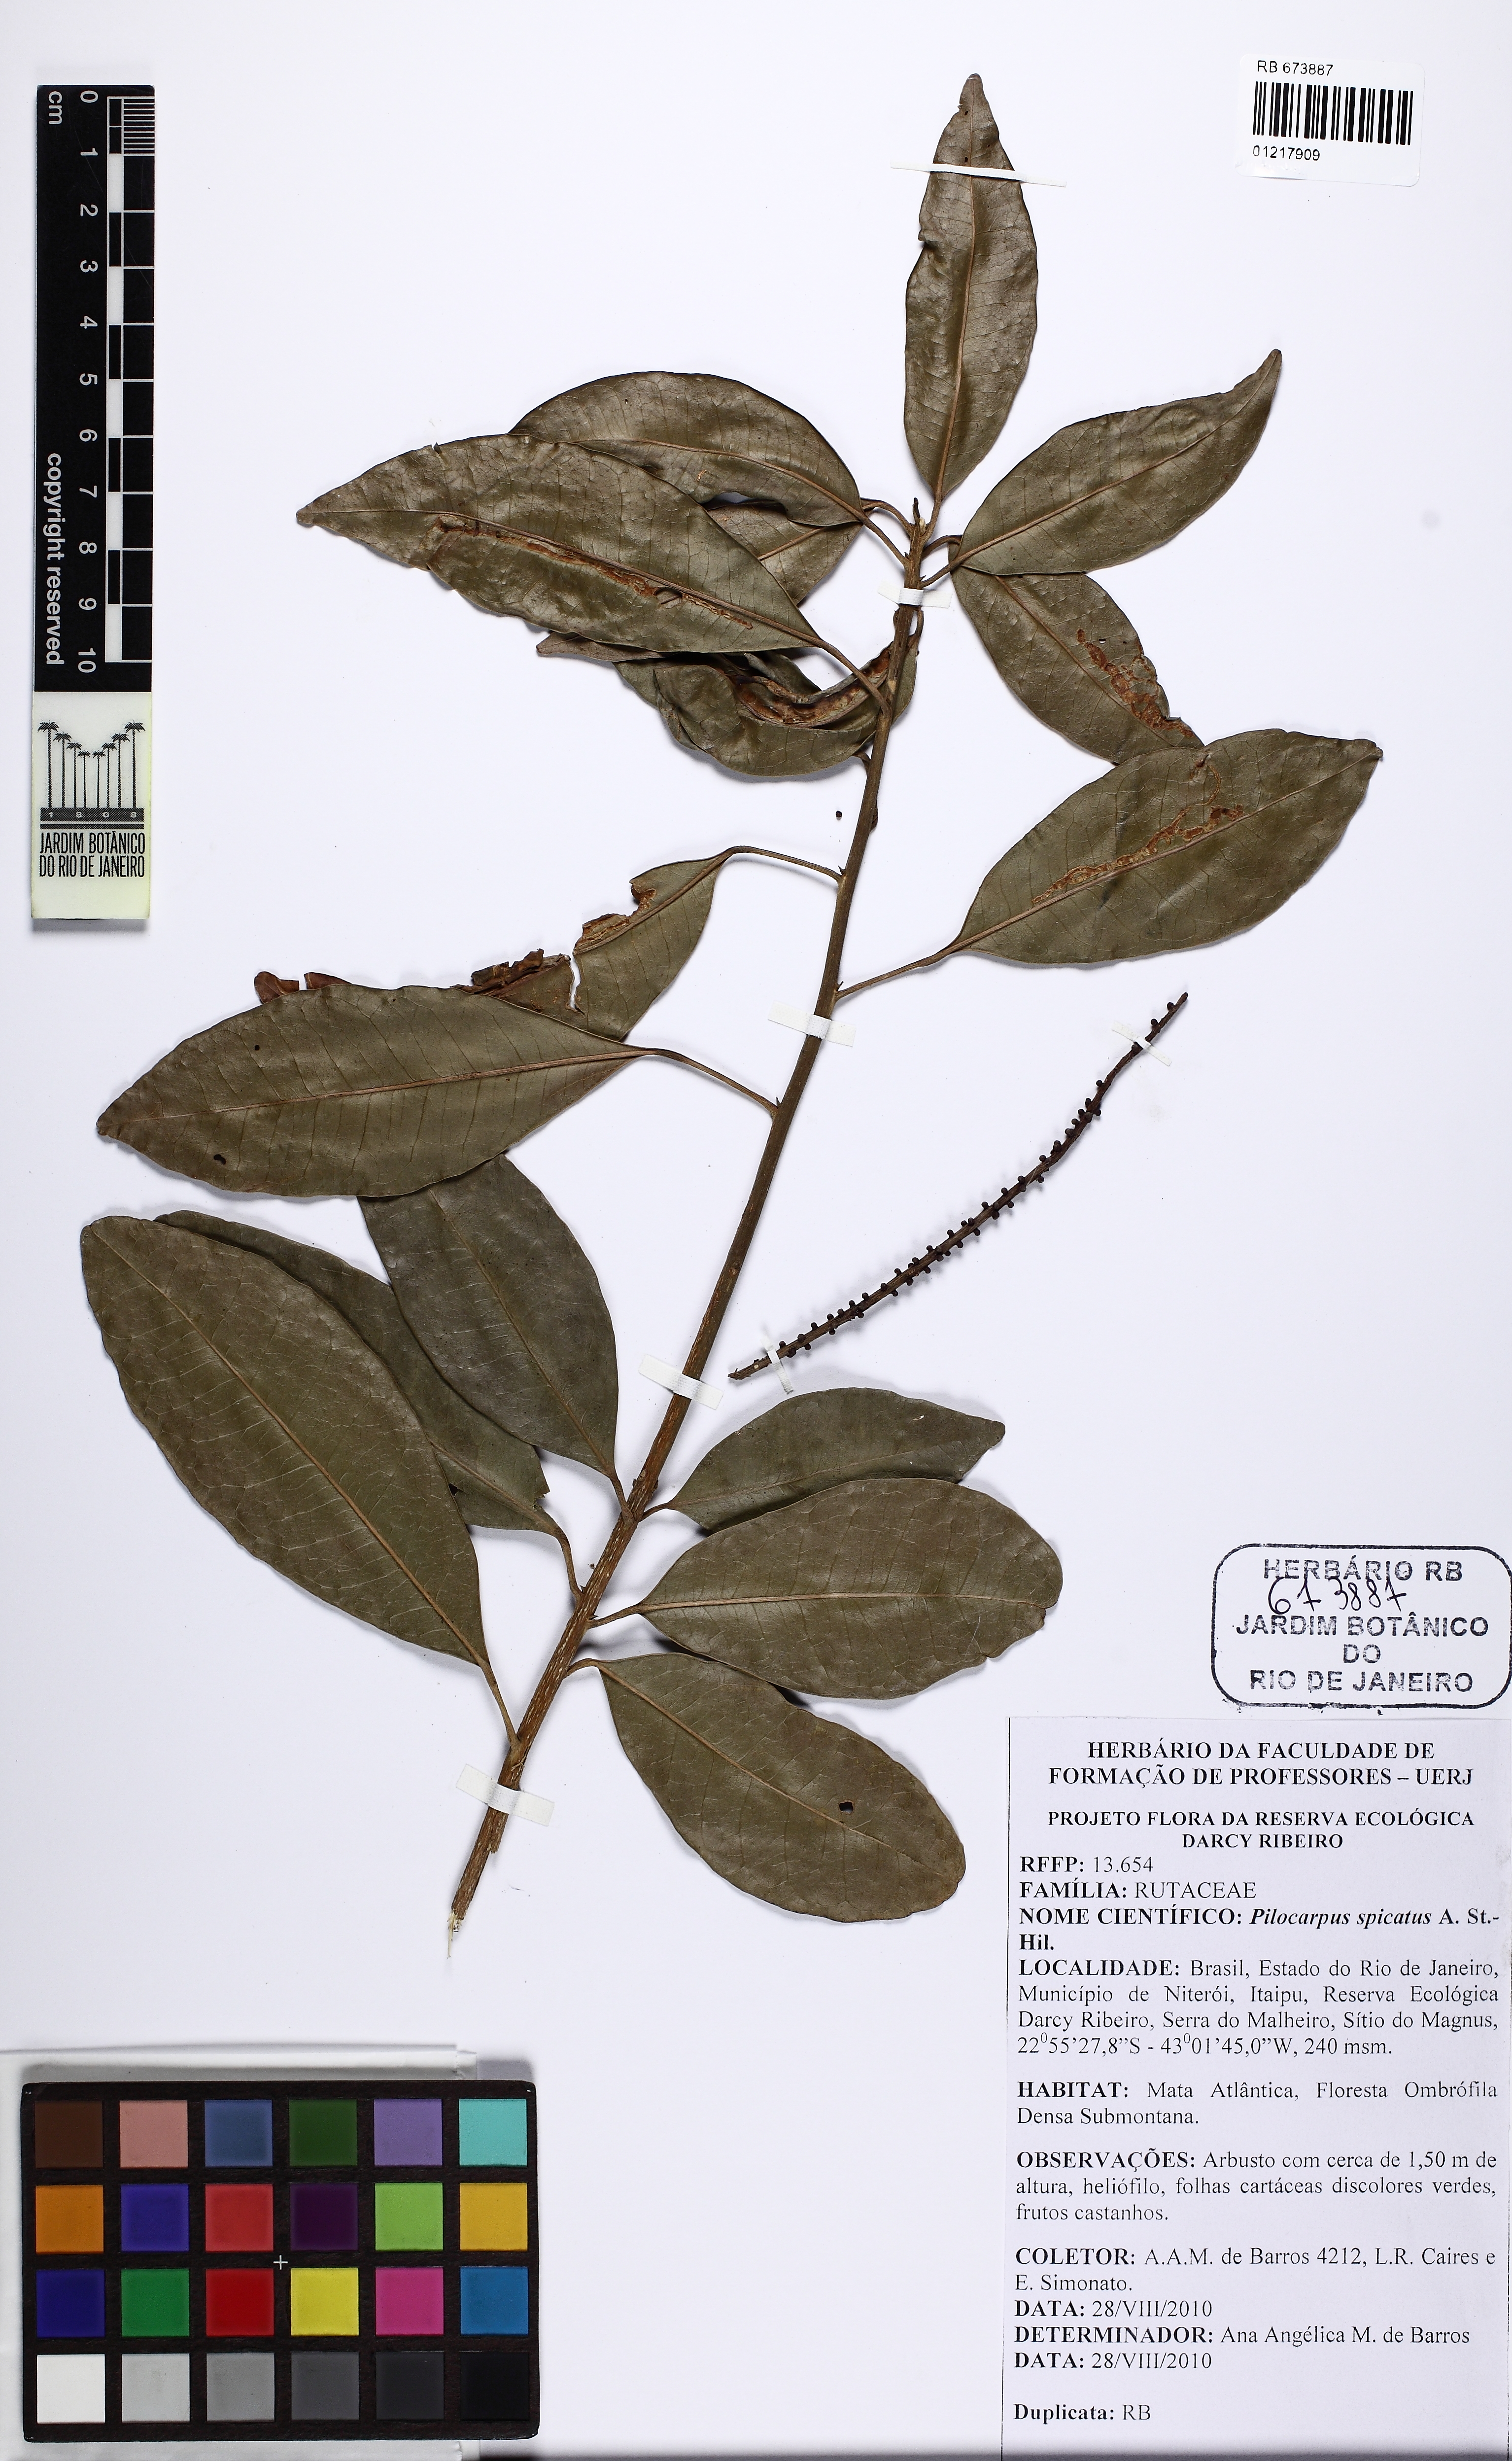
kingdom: Plantae
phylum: Tracheophyta
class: Magnoliopsida
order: Sapindales
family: Rutaceae
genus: Pilocarpus
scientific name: Pilocarpus spicatus
